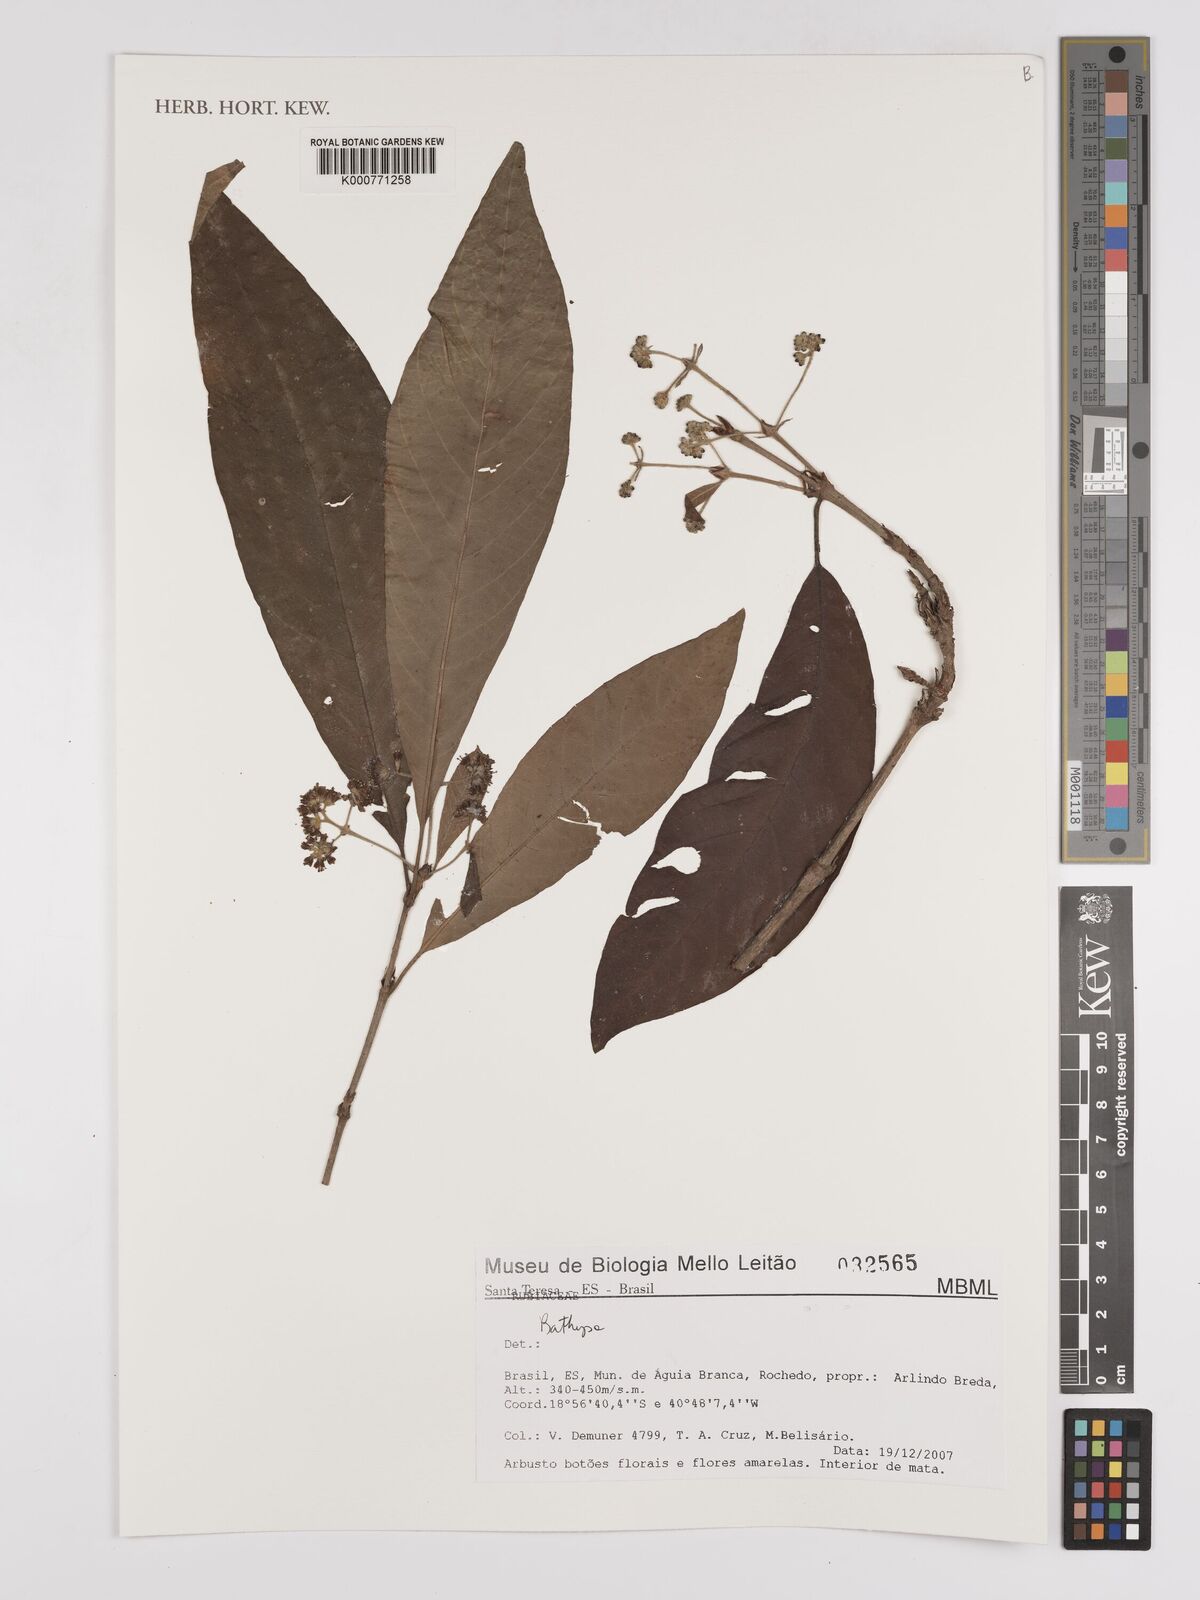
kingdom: Plantae
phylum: Tracheophyta
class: Magnoliopsida
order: Gentianales
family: Rubiaceae
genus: Bathysa
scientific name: Bathysa
